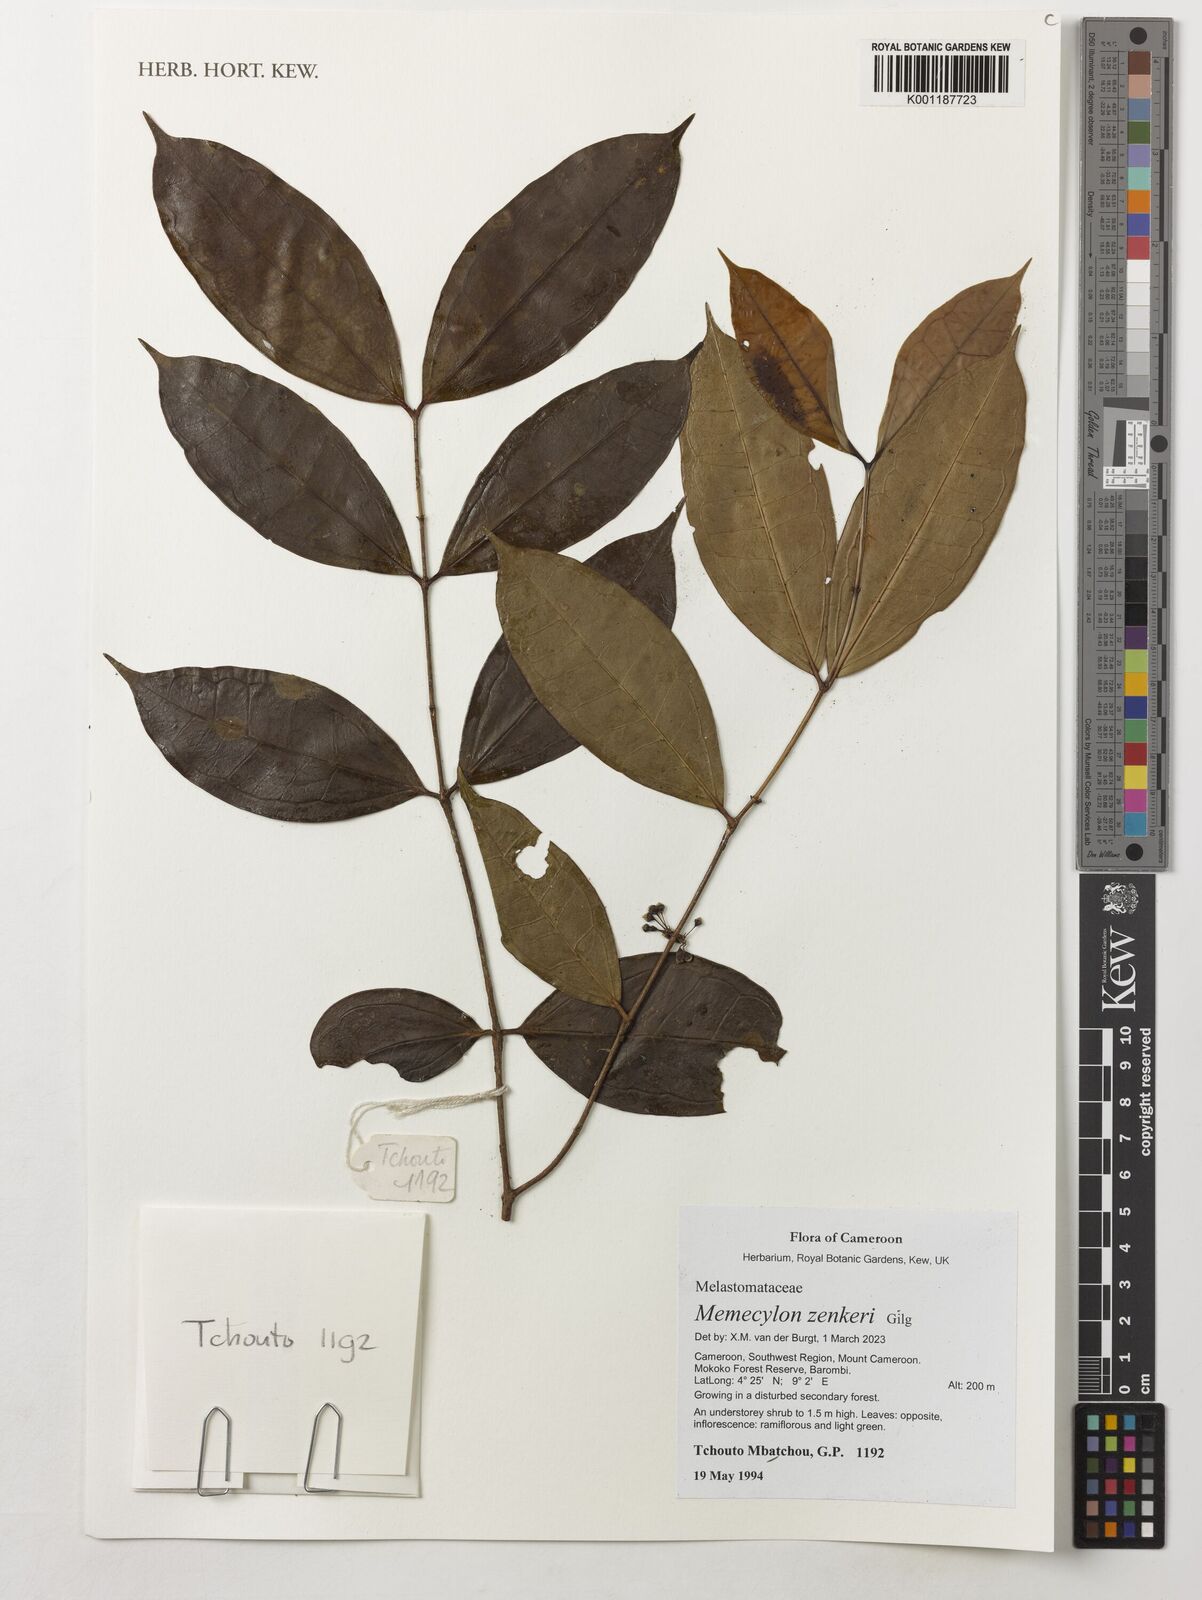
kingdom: Plantae
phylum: Tracheophyta
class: Magnoliopsida
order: Myrtales
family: Melastomataceae
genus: Memecylon
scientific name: Memecylon zenkeri
